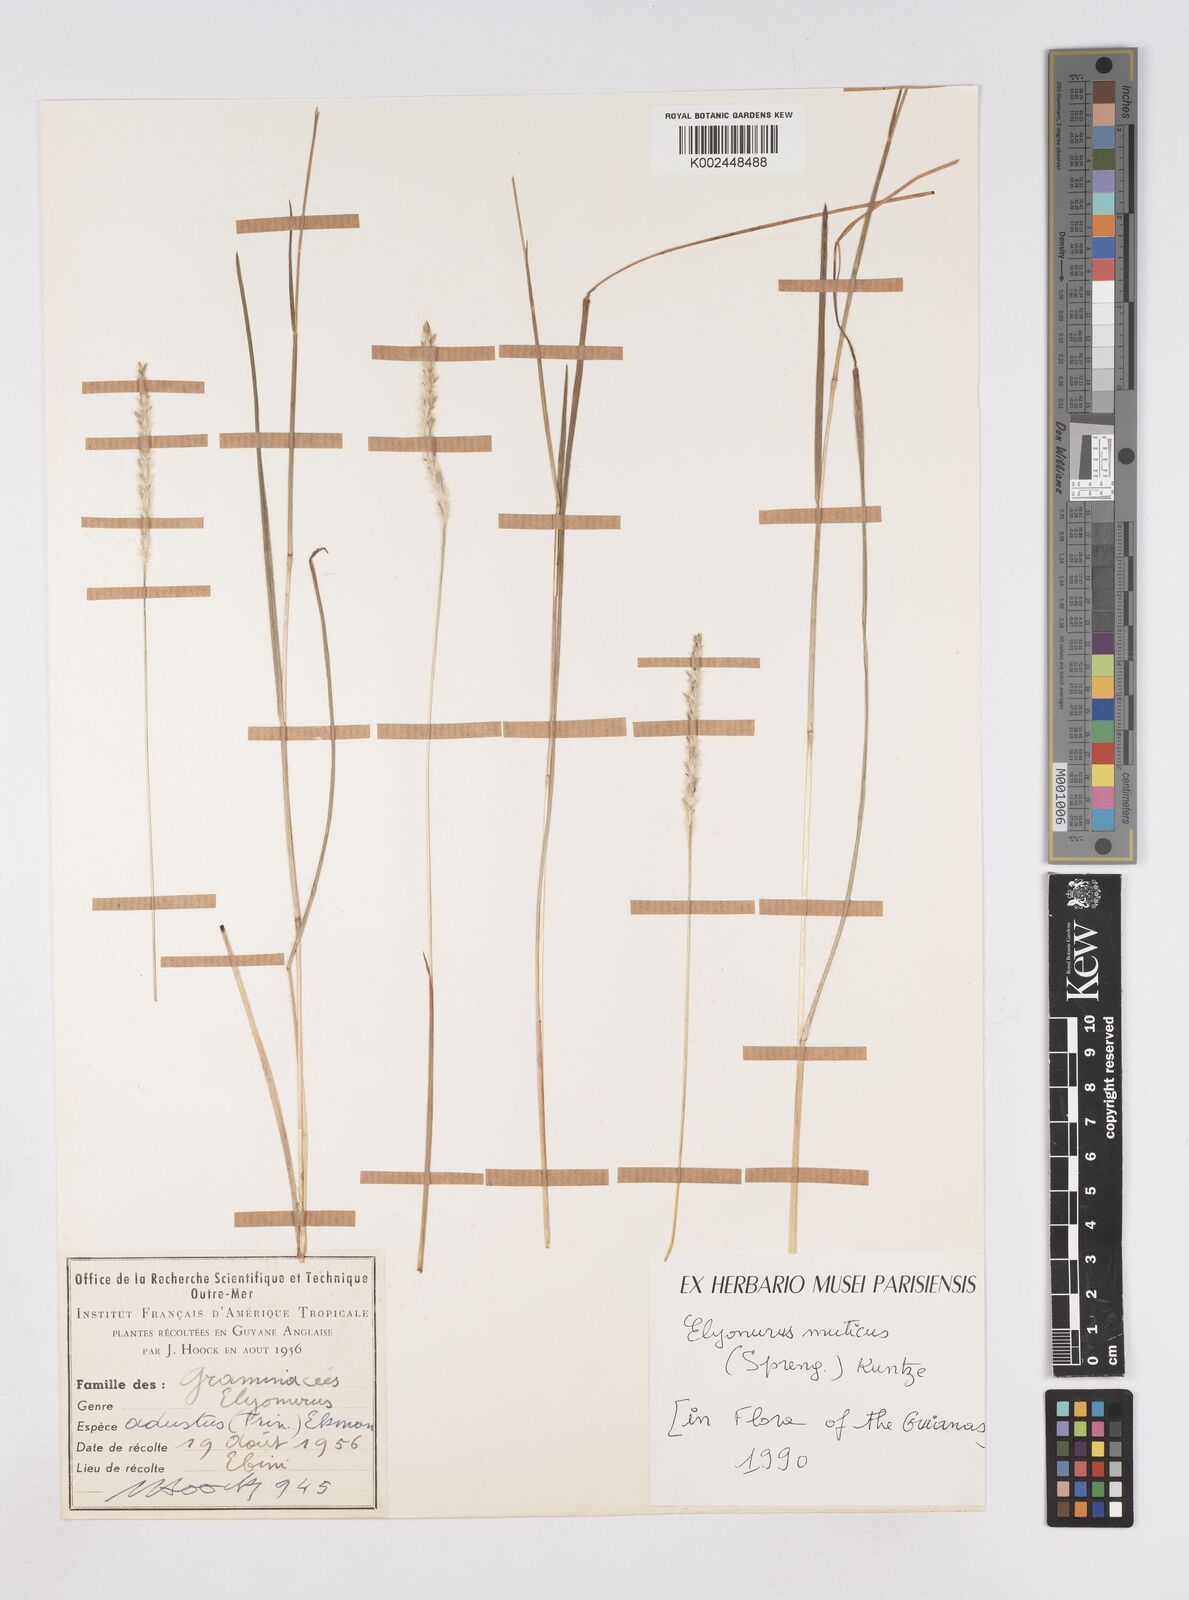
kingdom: Plantae
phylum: Tracheophyta
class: Liliopsida
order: Poales
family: Poaceae
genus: Elionurus
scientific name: Elionurus muticus
